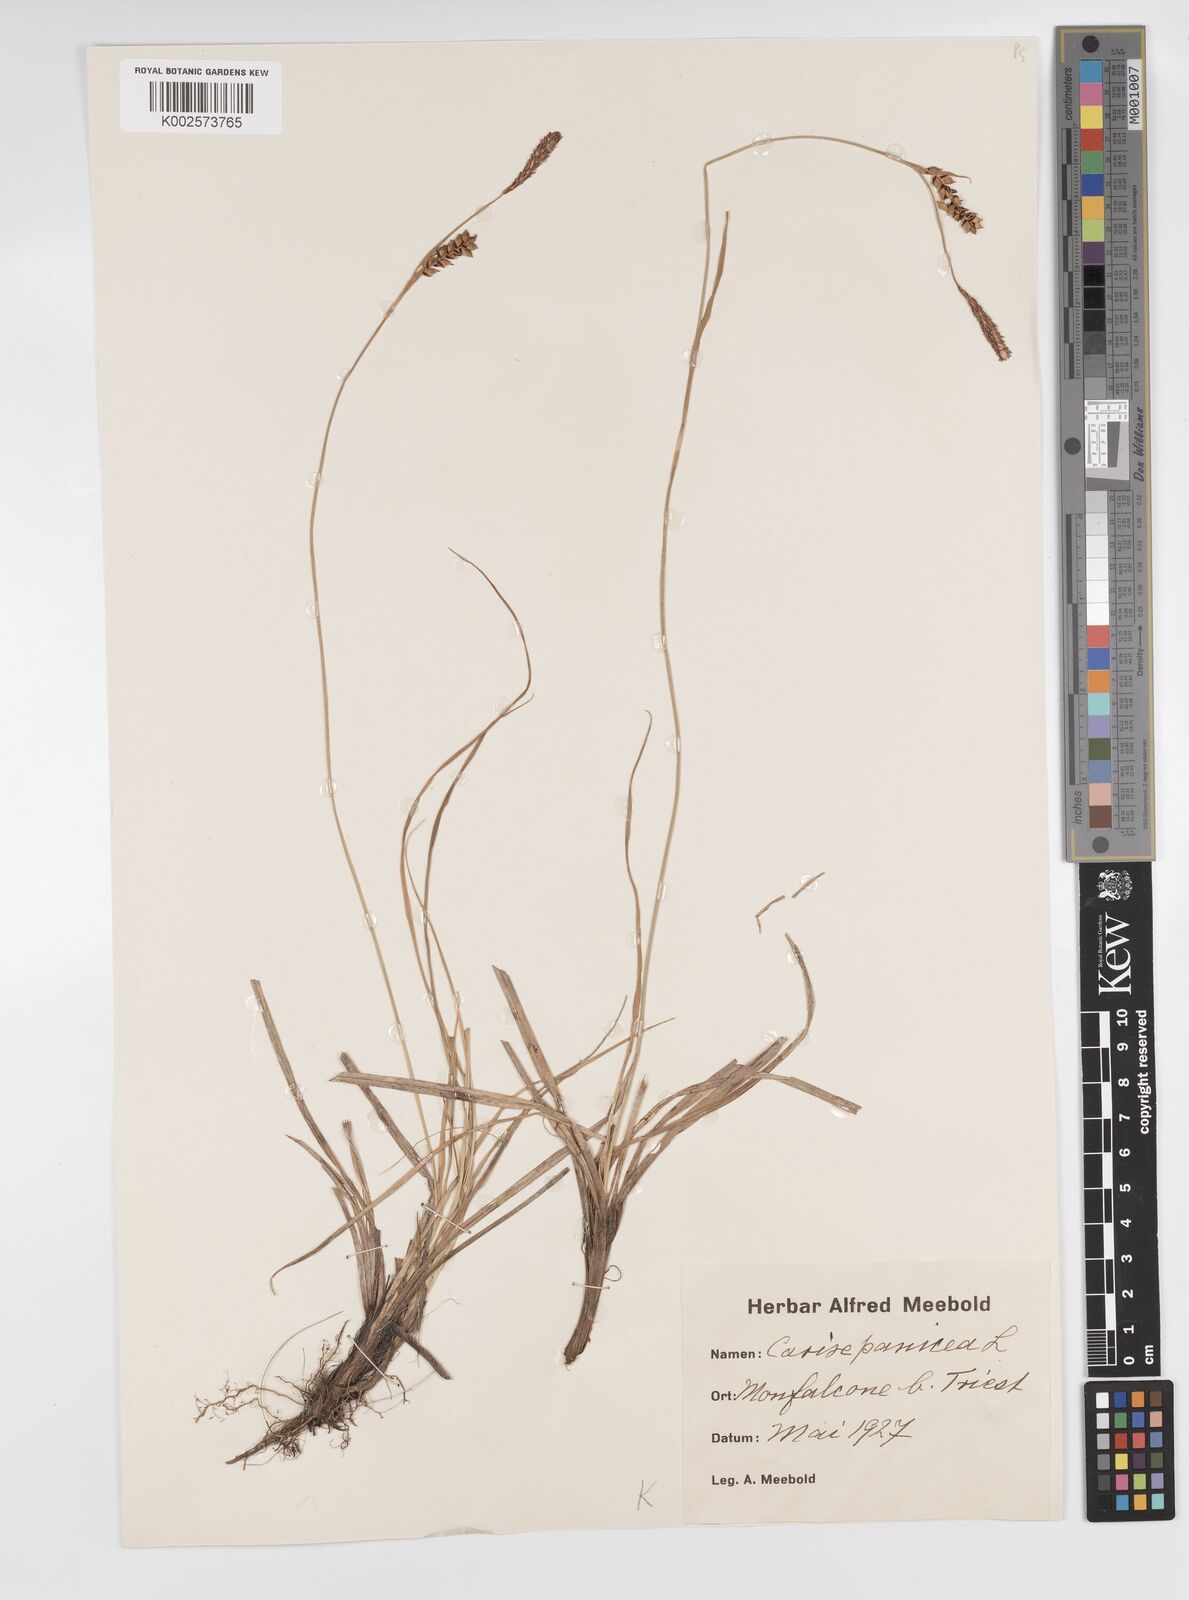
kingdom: Plantae
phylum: Tracheophyta
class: Liliopsida
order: Poales
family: Cyperaceae
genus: Carex
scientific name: Carex panicea
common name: Carnation sedge
